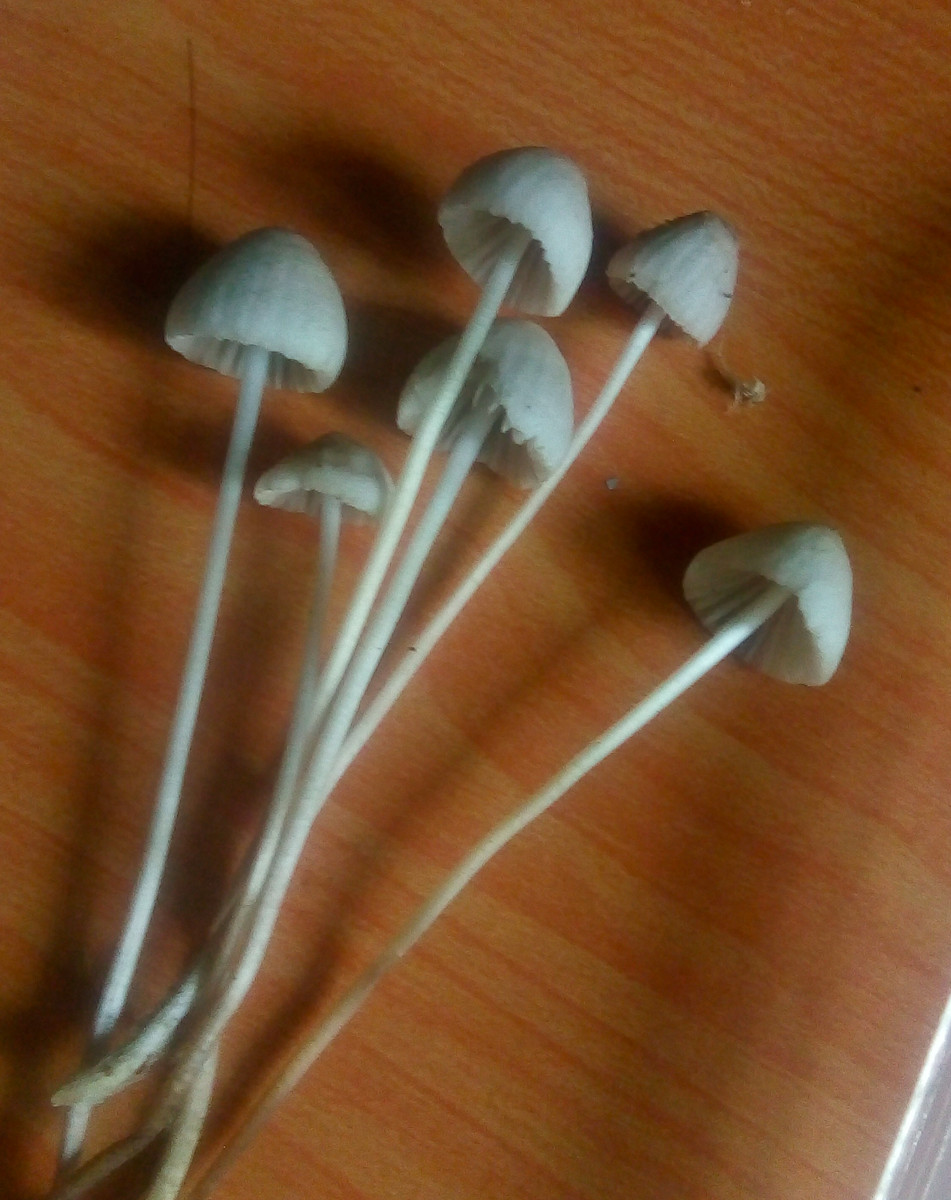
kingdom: Fungi
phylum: Basidiomycota
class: Agaricomycetes
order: Agaricales
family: Mycenaceae
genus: Mycena
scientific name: Mycena capillaripes
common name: nåle-huesvamp
